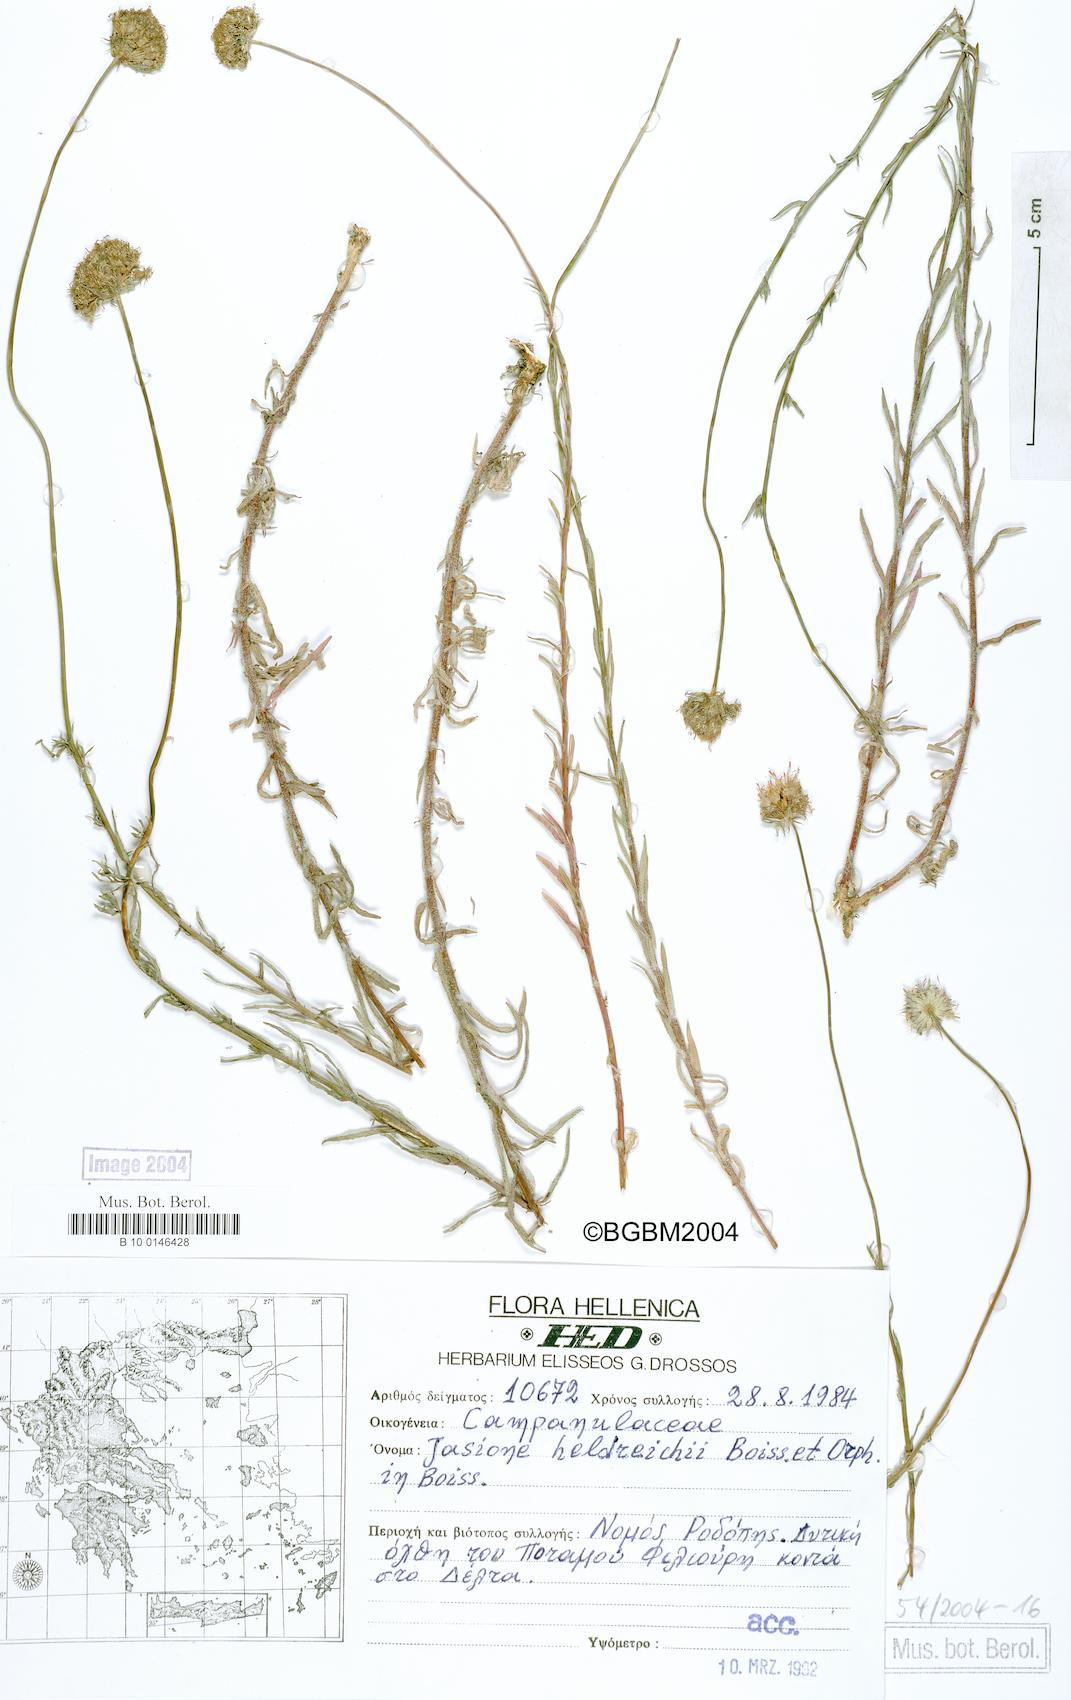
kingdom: Plantae
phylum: Tracheophyta
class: Magnoliopsida
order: Asterales
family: Campanulaceae
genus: Jasione
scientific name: Jasione heldreichii
